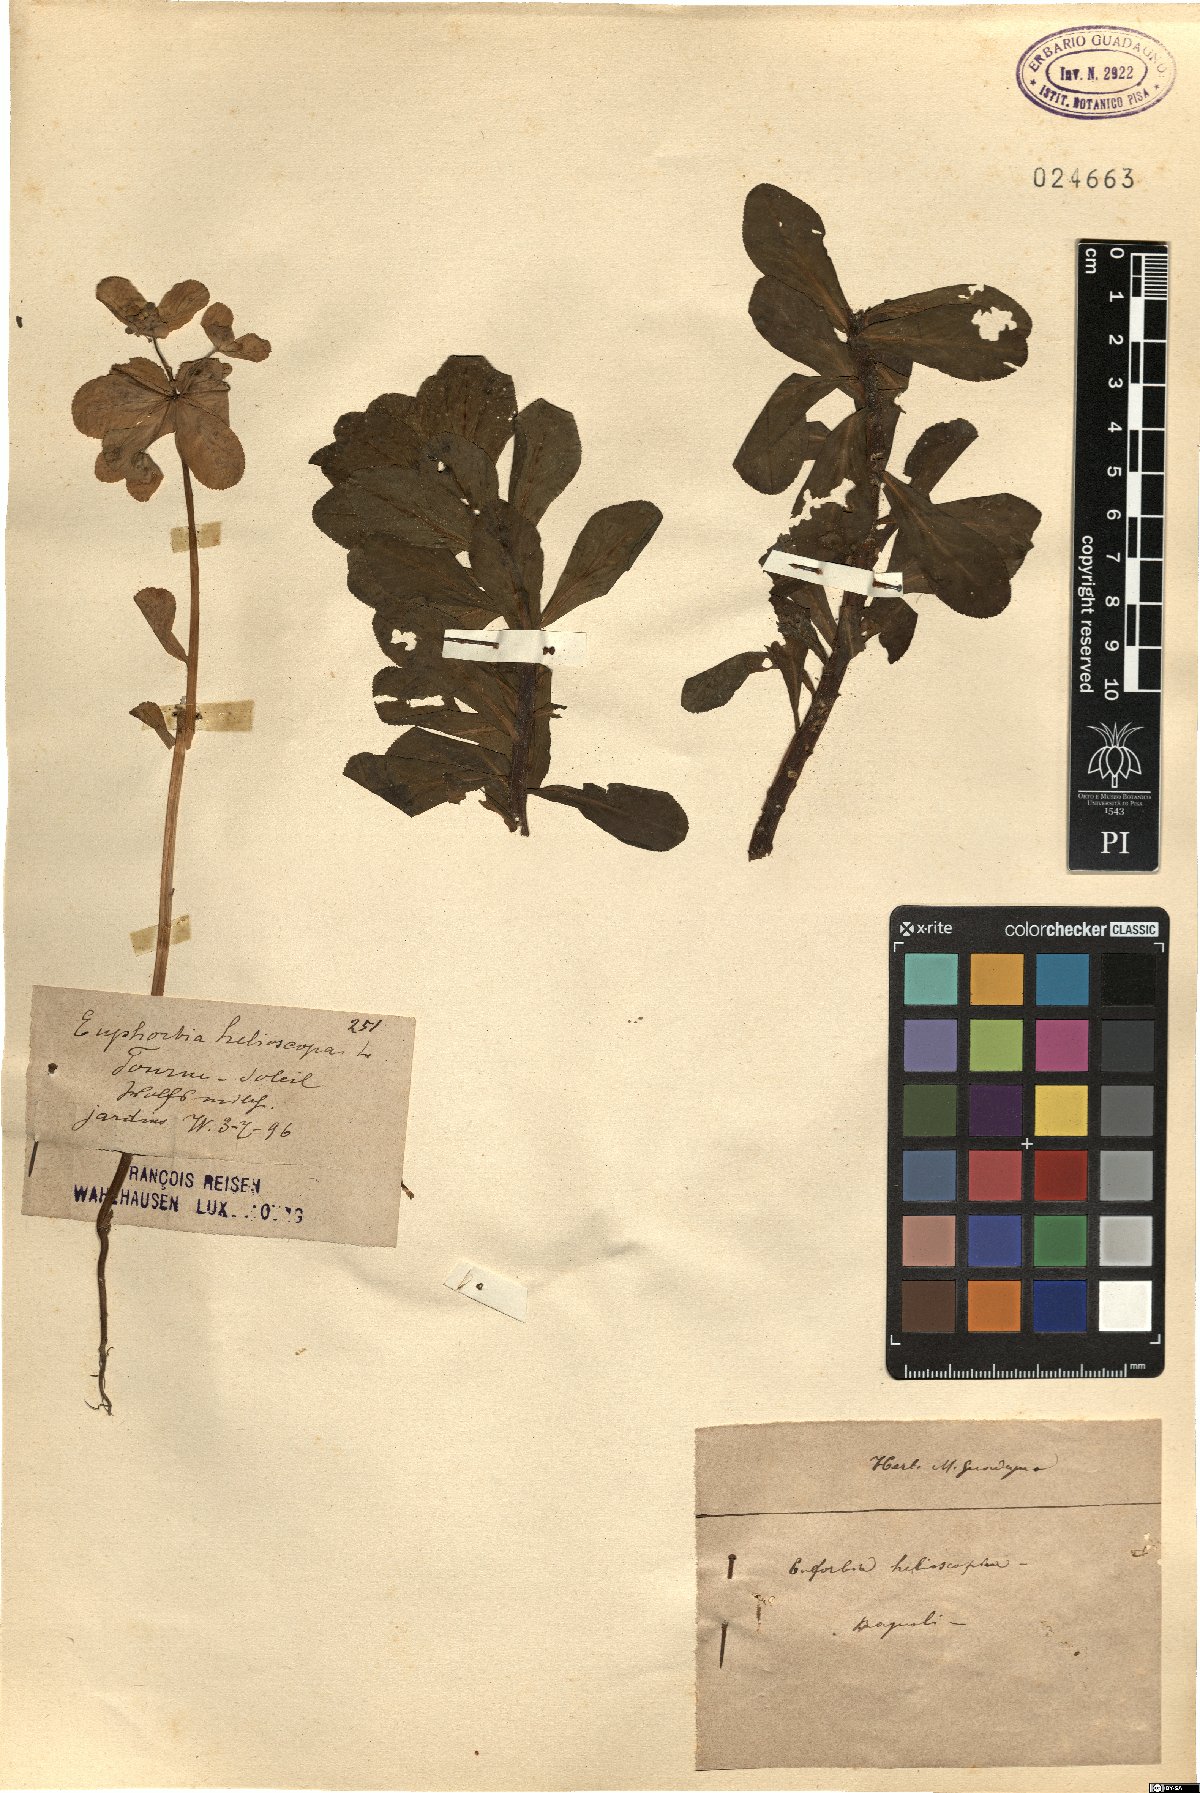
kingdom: Plantae
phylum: Tracheophyta
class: Magnoliopsida
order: Malpighiales
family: Euphorbiaceae
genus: Euphorbia
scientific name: Euphorbia helioscopia
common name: Sun spurge
